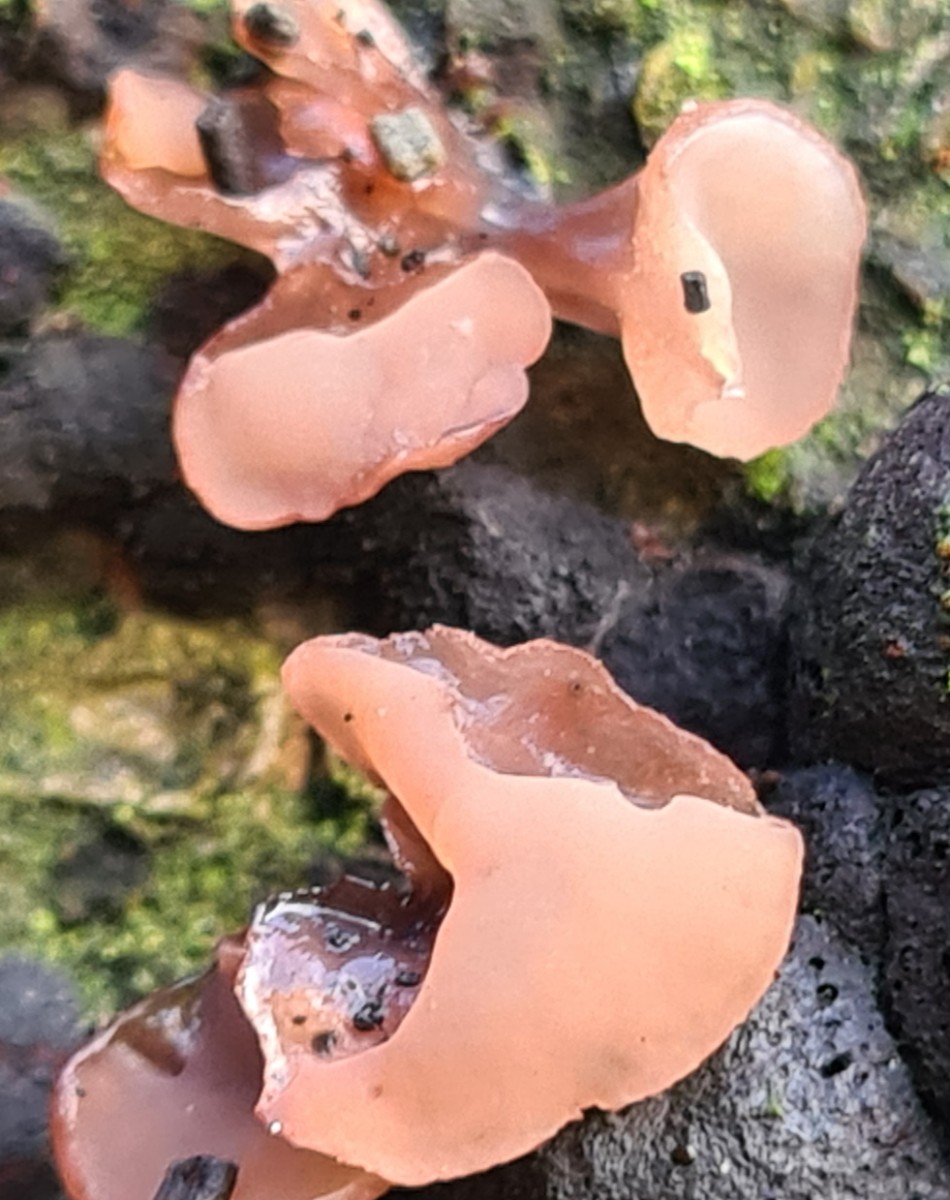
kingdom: Fungi
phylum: Ascomycota
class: Leotiomycetes
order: Helotiales
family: Gelatinodiscaceae
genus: Neobulgaria
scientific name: Neobulgaria pura
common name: bleg bævreskive
